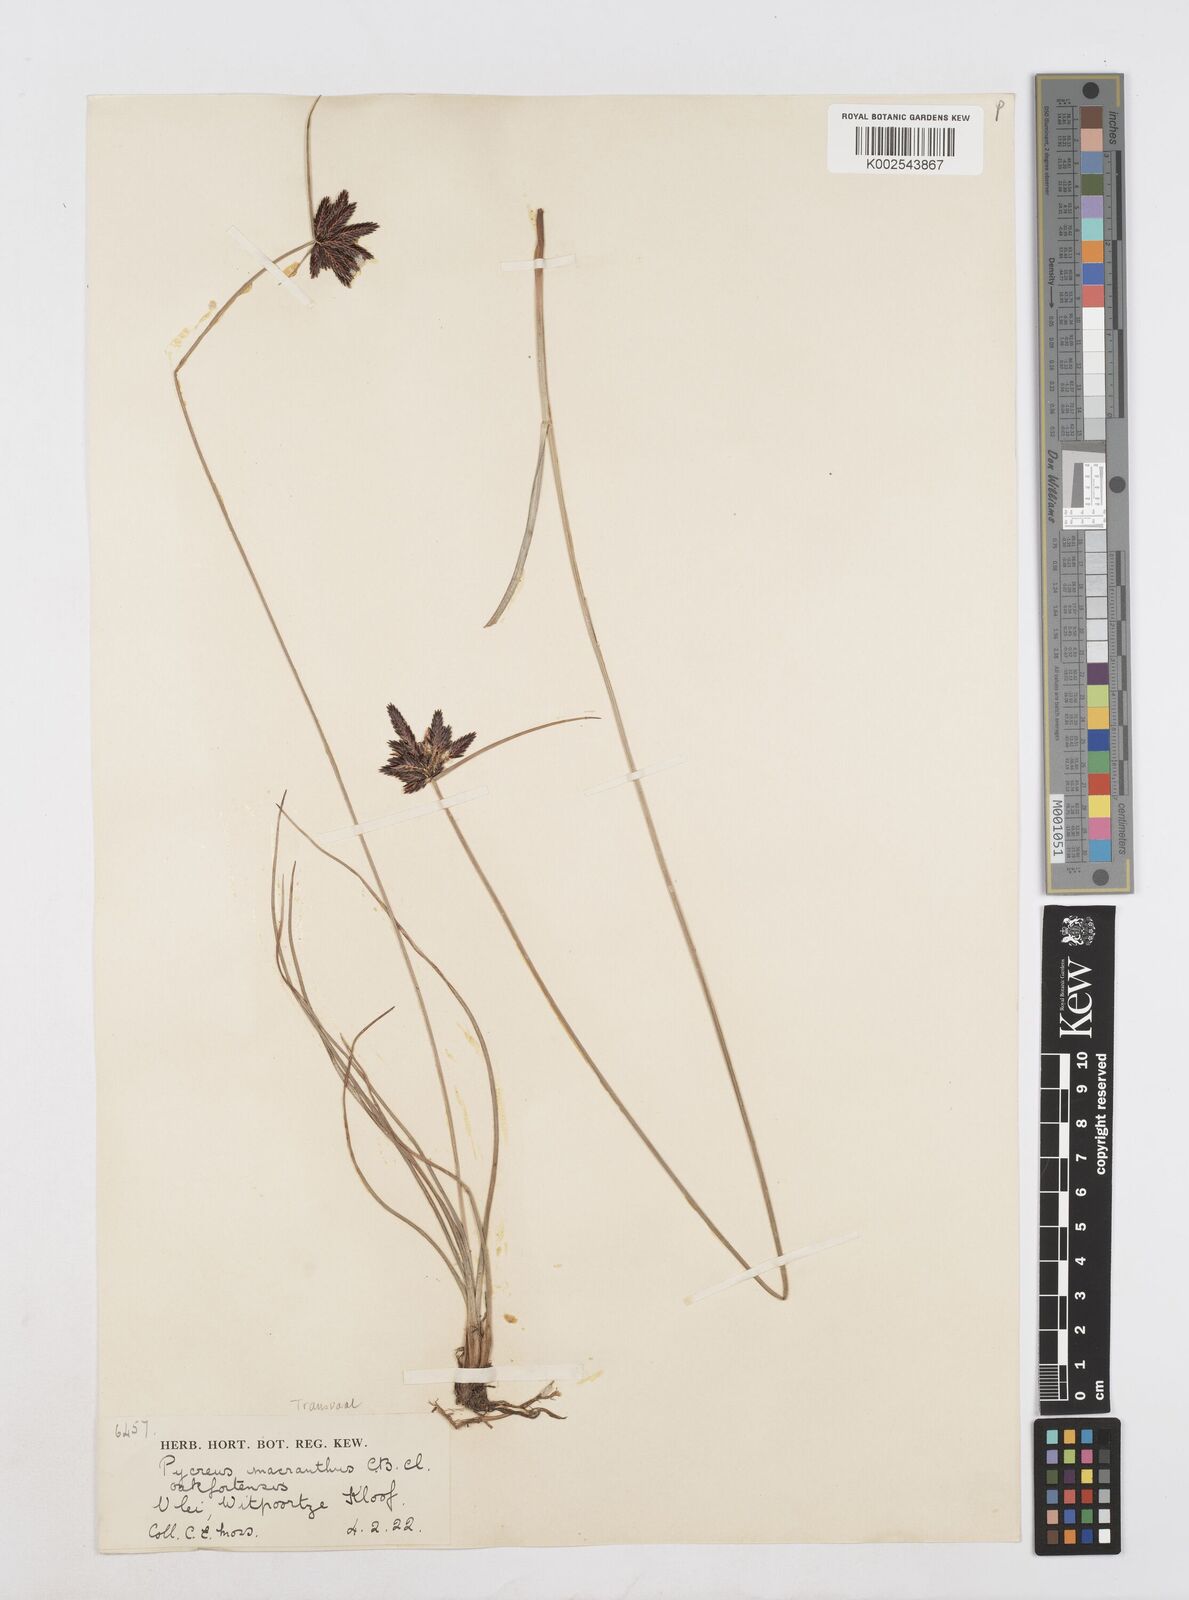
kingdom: Plantae
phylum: Tracheophyta
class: Liliopsida
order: Poales
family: Cyperaceae
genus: Cyperus
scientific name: Cyperus nigricans
